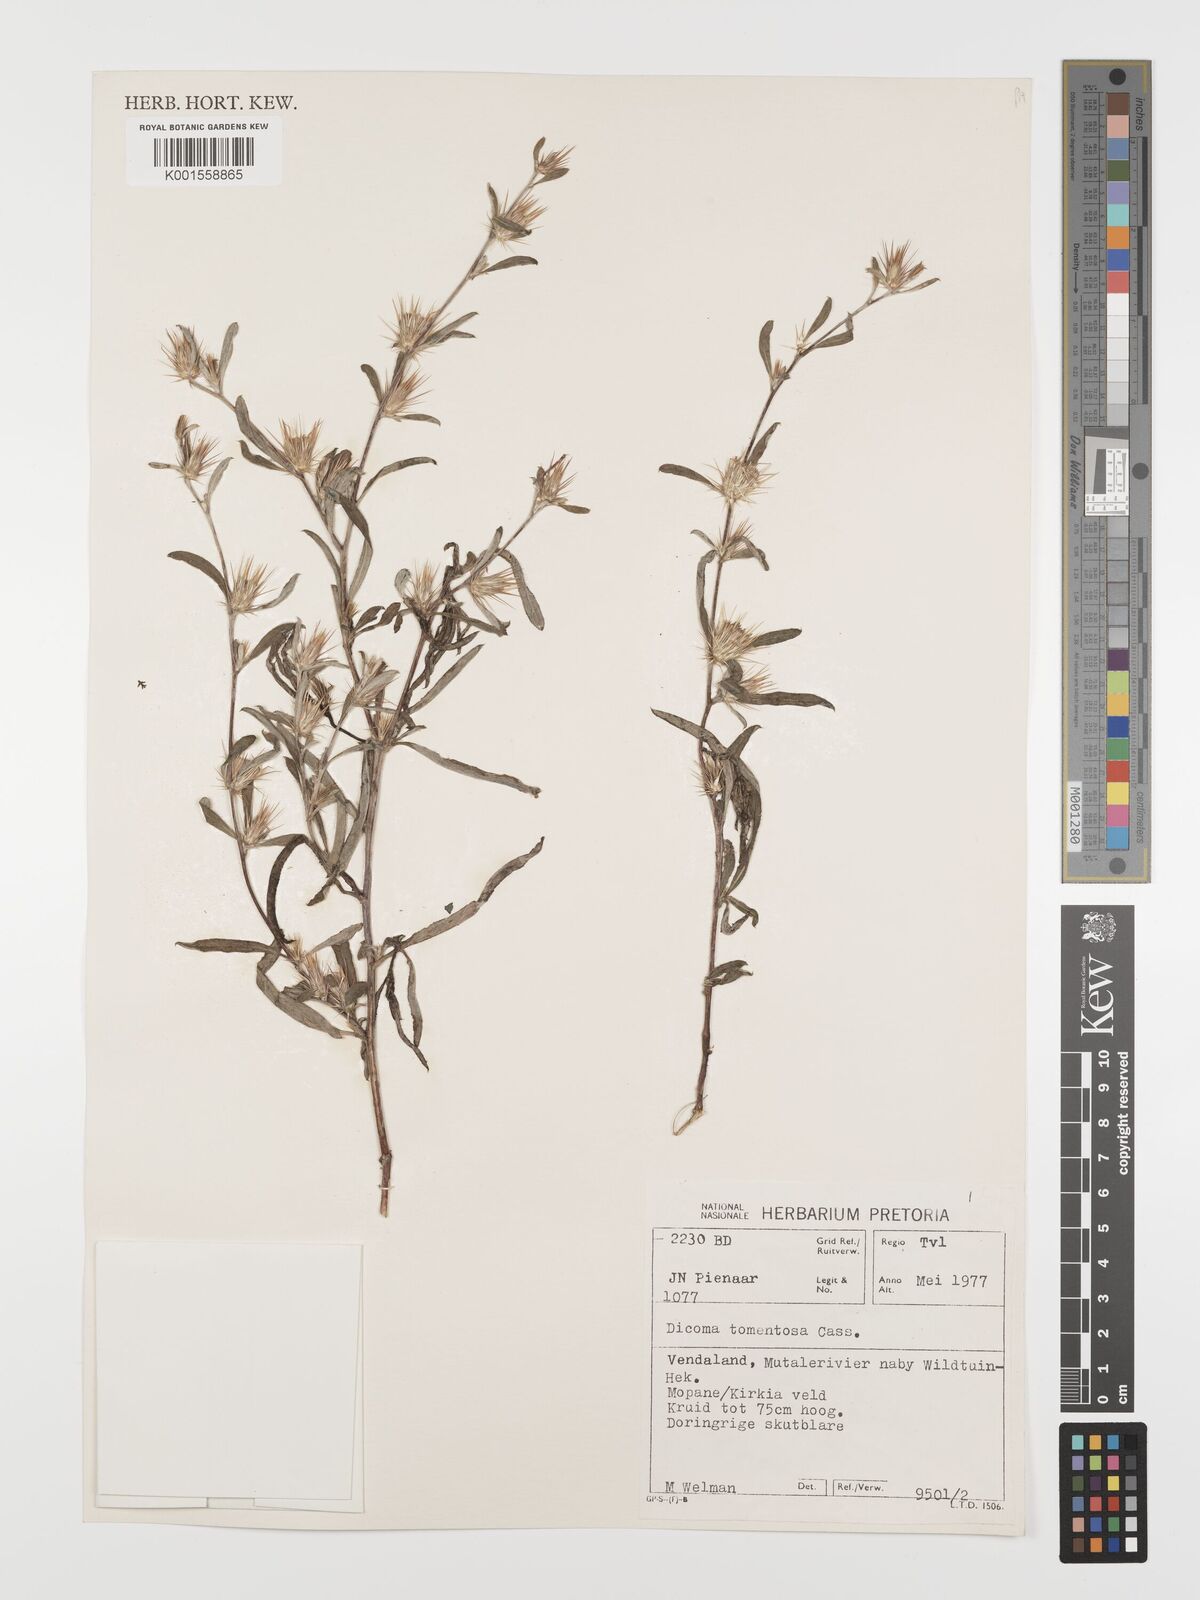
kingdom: Plantae
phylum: Tracheophyta
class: Magnoliopsida
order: Asterales
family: Asteraceae
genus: Dicoma
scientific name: Dicoma tomentosa
